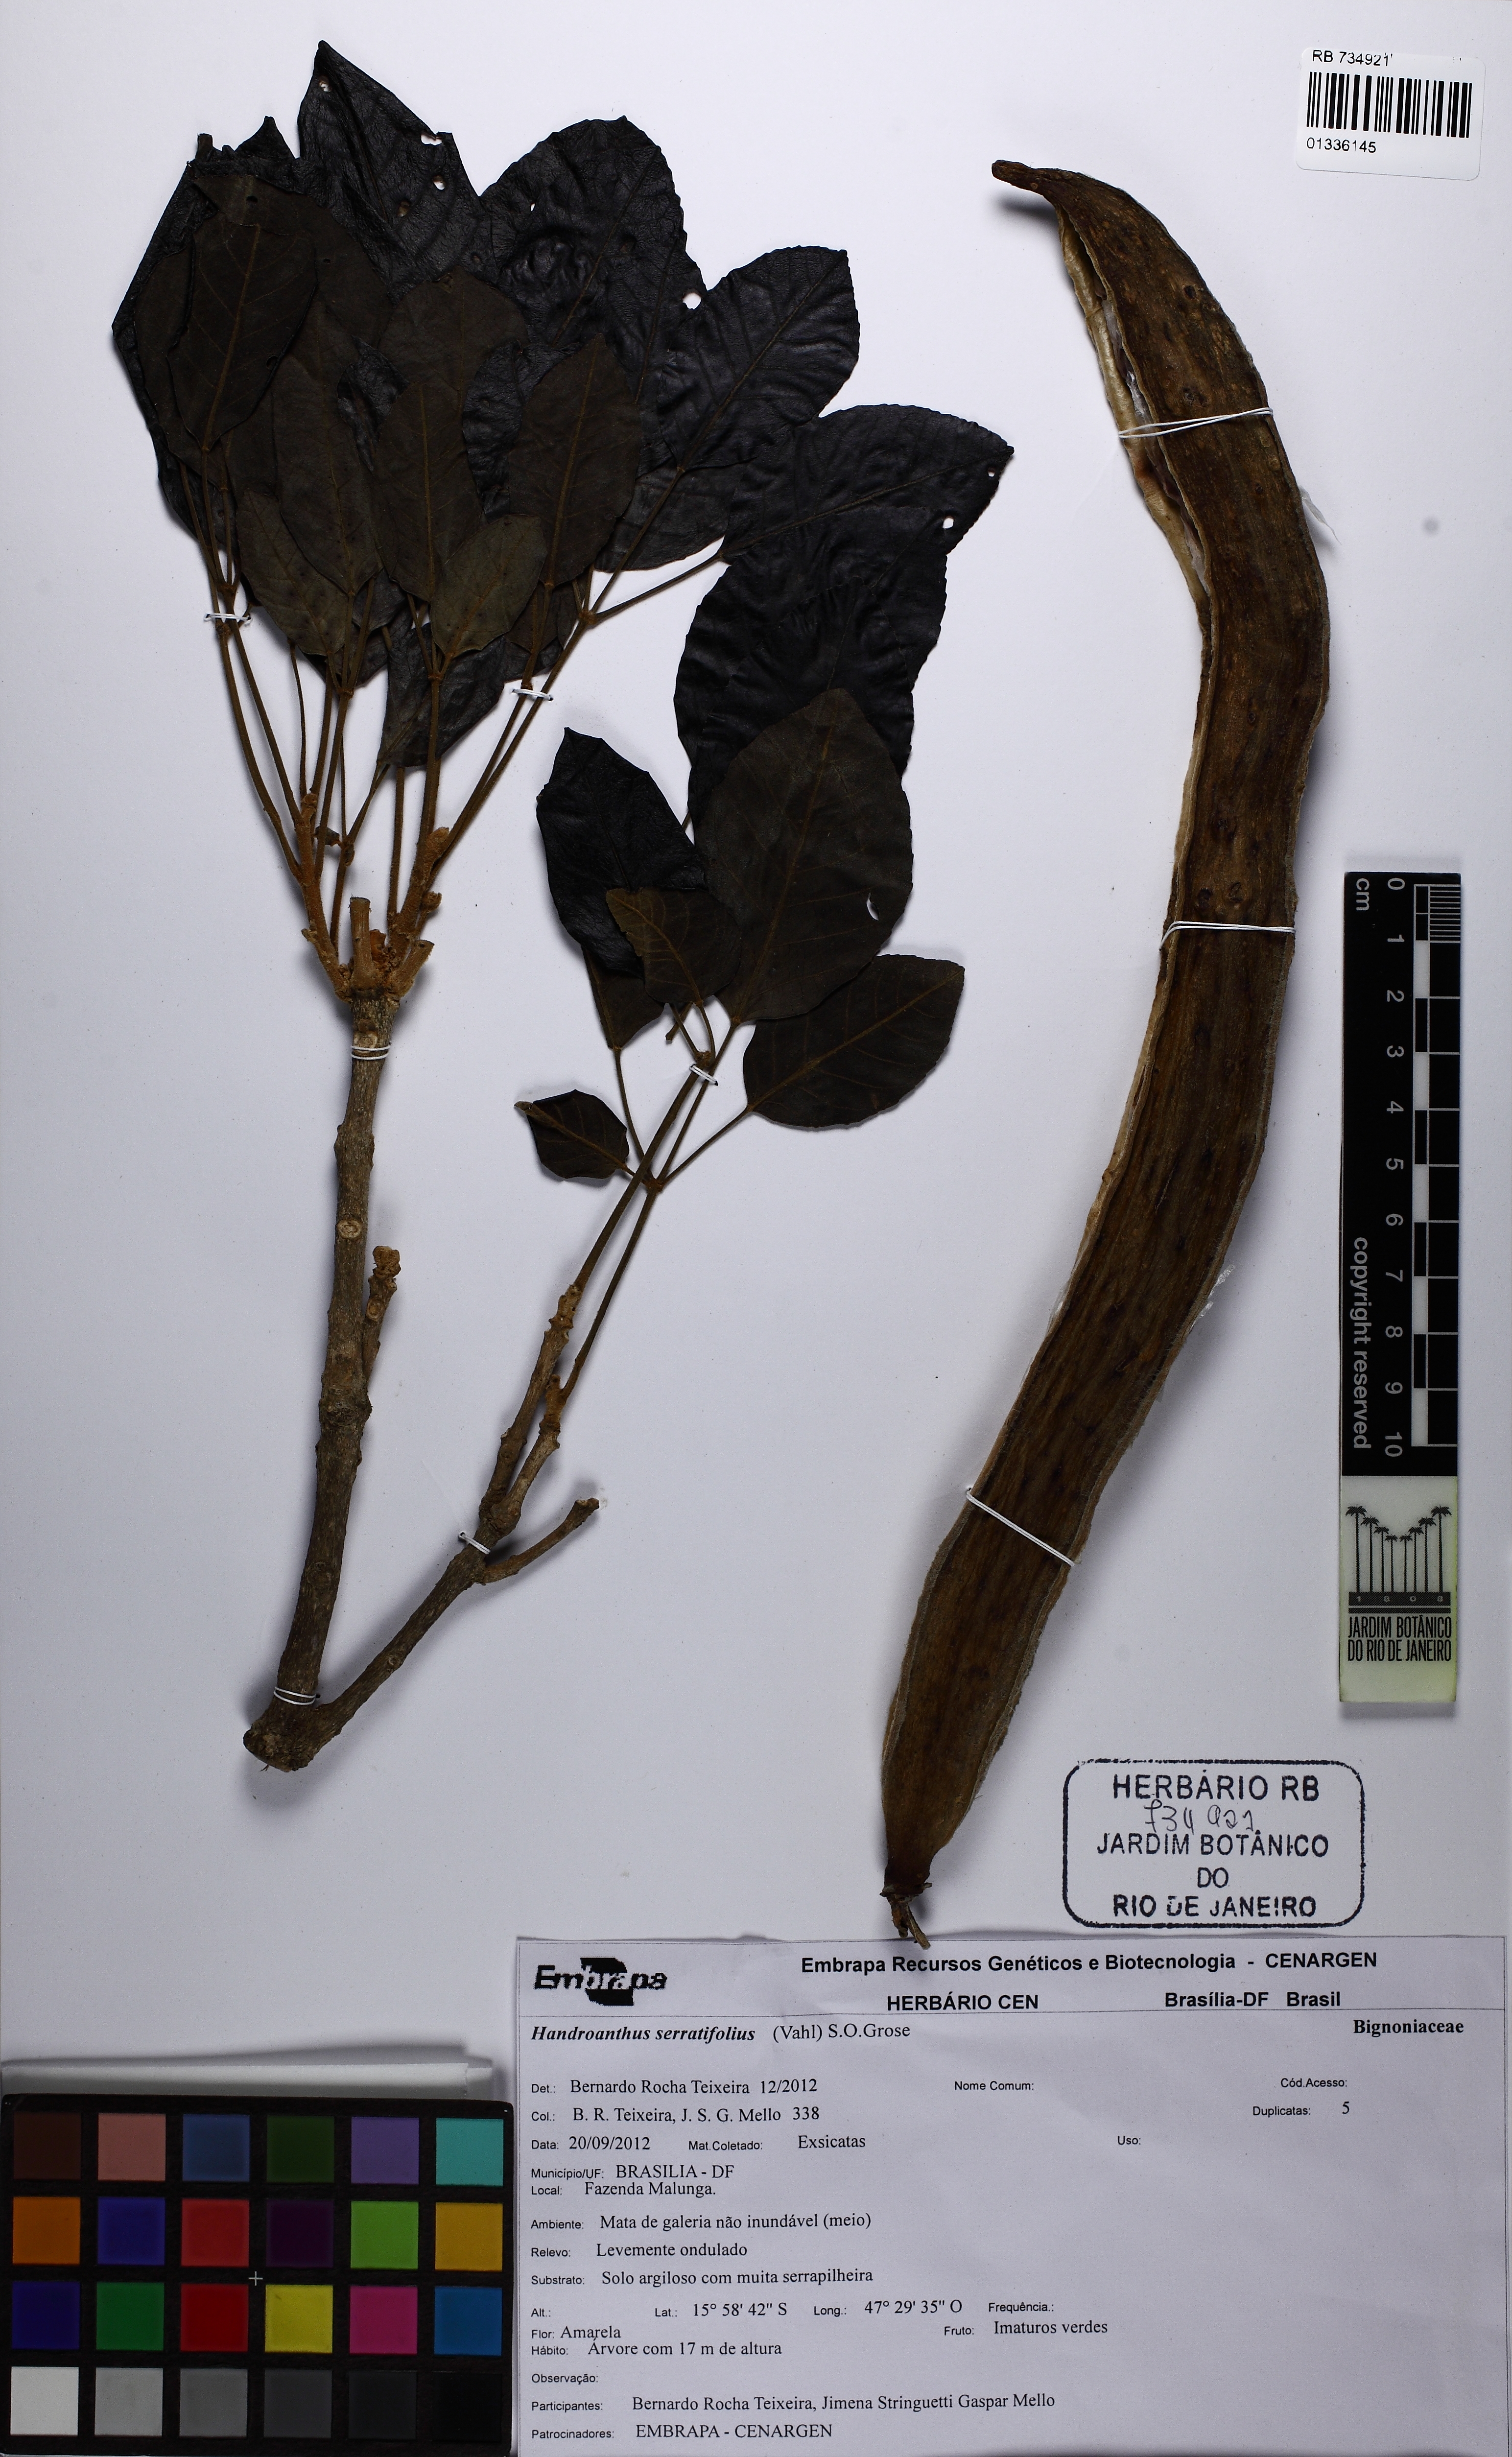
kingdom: Plantae
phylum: Tracheophyta
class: Magnoliopsida
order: Lamiales
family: Bignoniaceae
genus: Handroanthus
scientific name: Handroanthus serratifolius
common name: Yellow ipe
